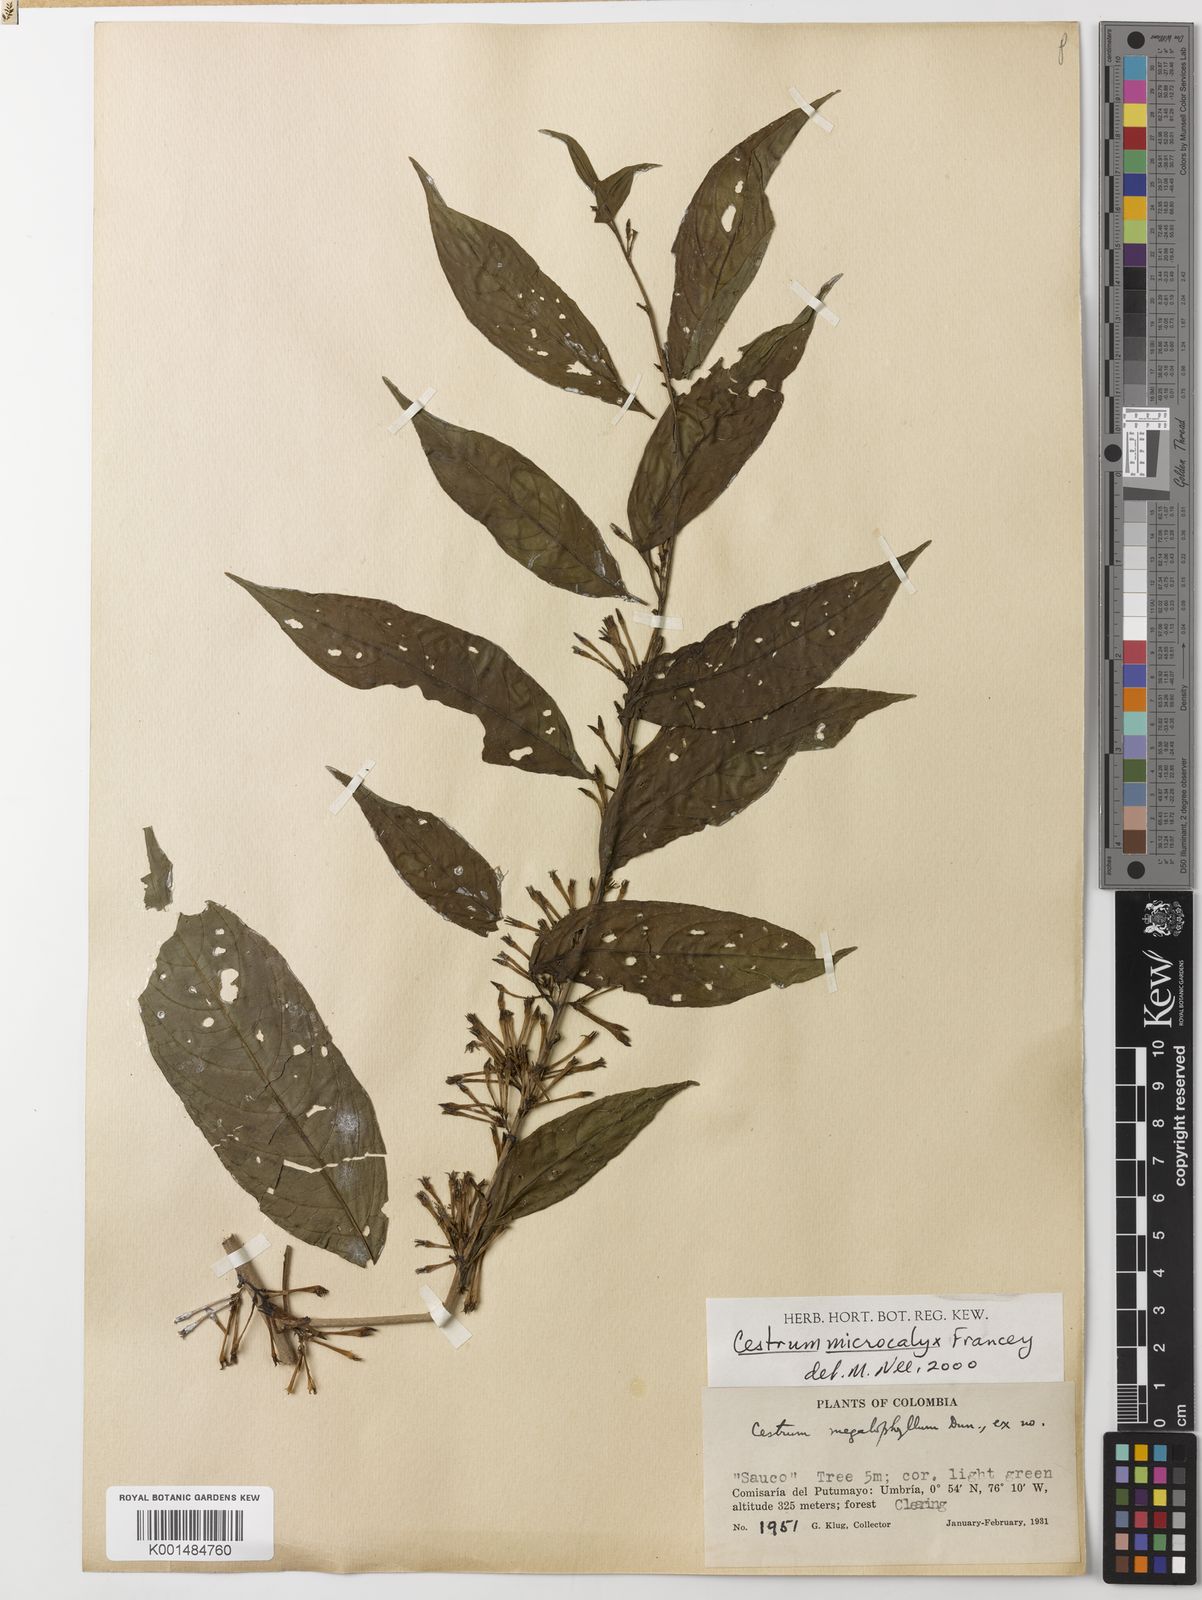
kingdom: Plantae
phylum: Tracheophyta
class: Magnoliopsida
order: Solanales
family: Solanaceae
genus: Cestrum
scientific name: Cestrum microcalyx
